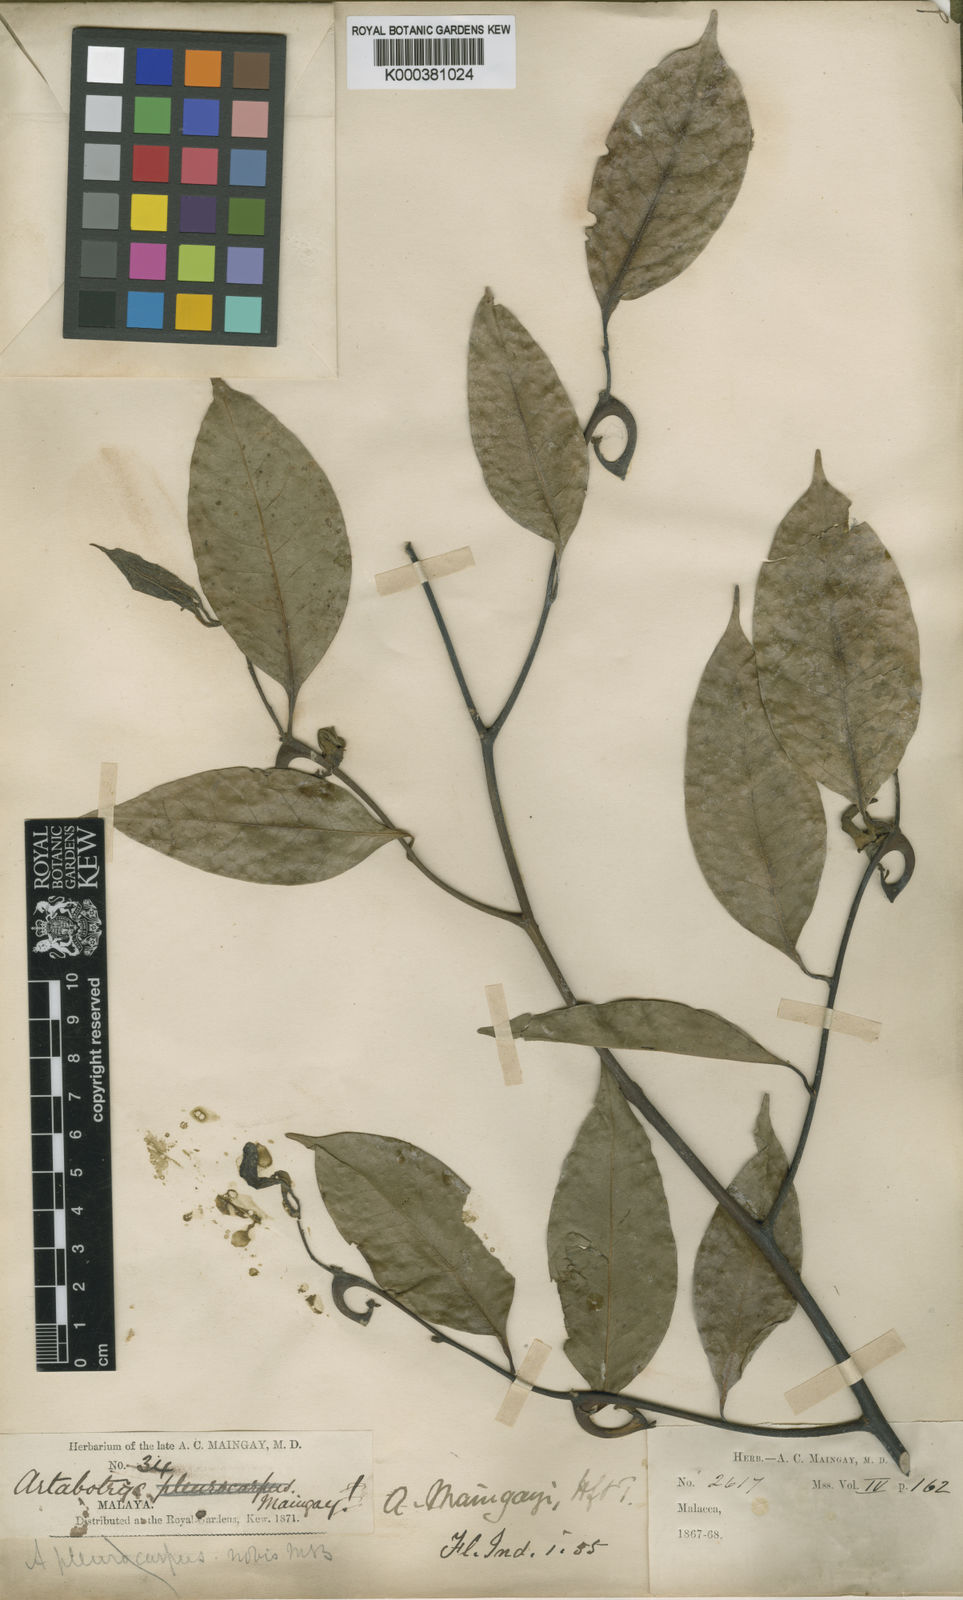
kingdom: Plantae
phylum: Tracheophyta
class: Magnoliopsida
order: Magnoliales
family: Annonaceae
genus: Artabotrys
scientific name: Artabotrys maingayi
